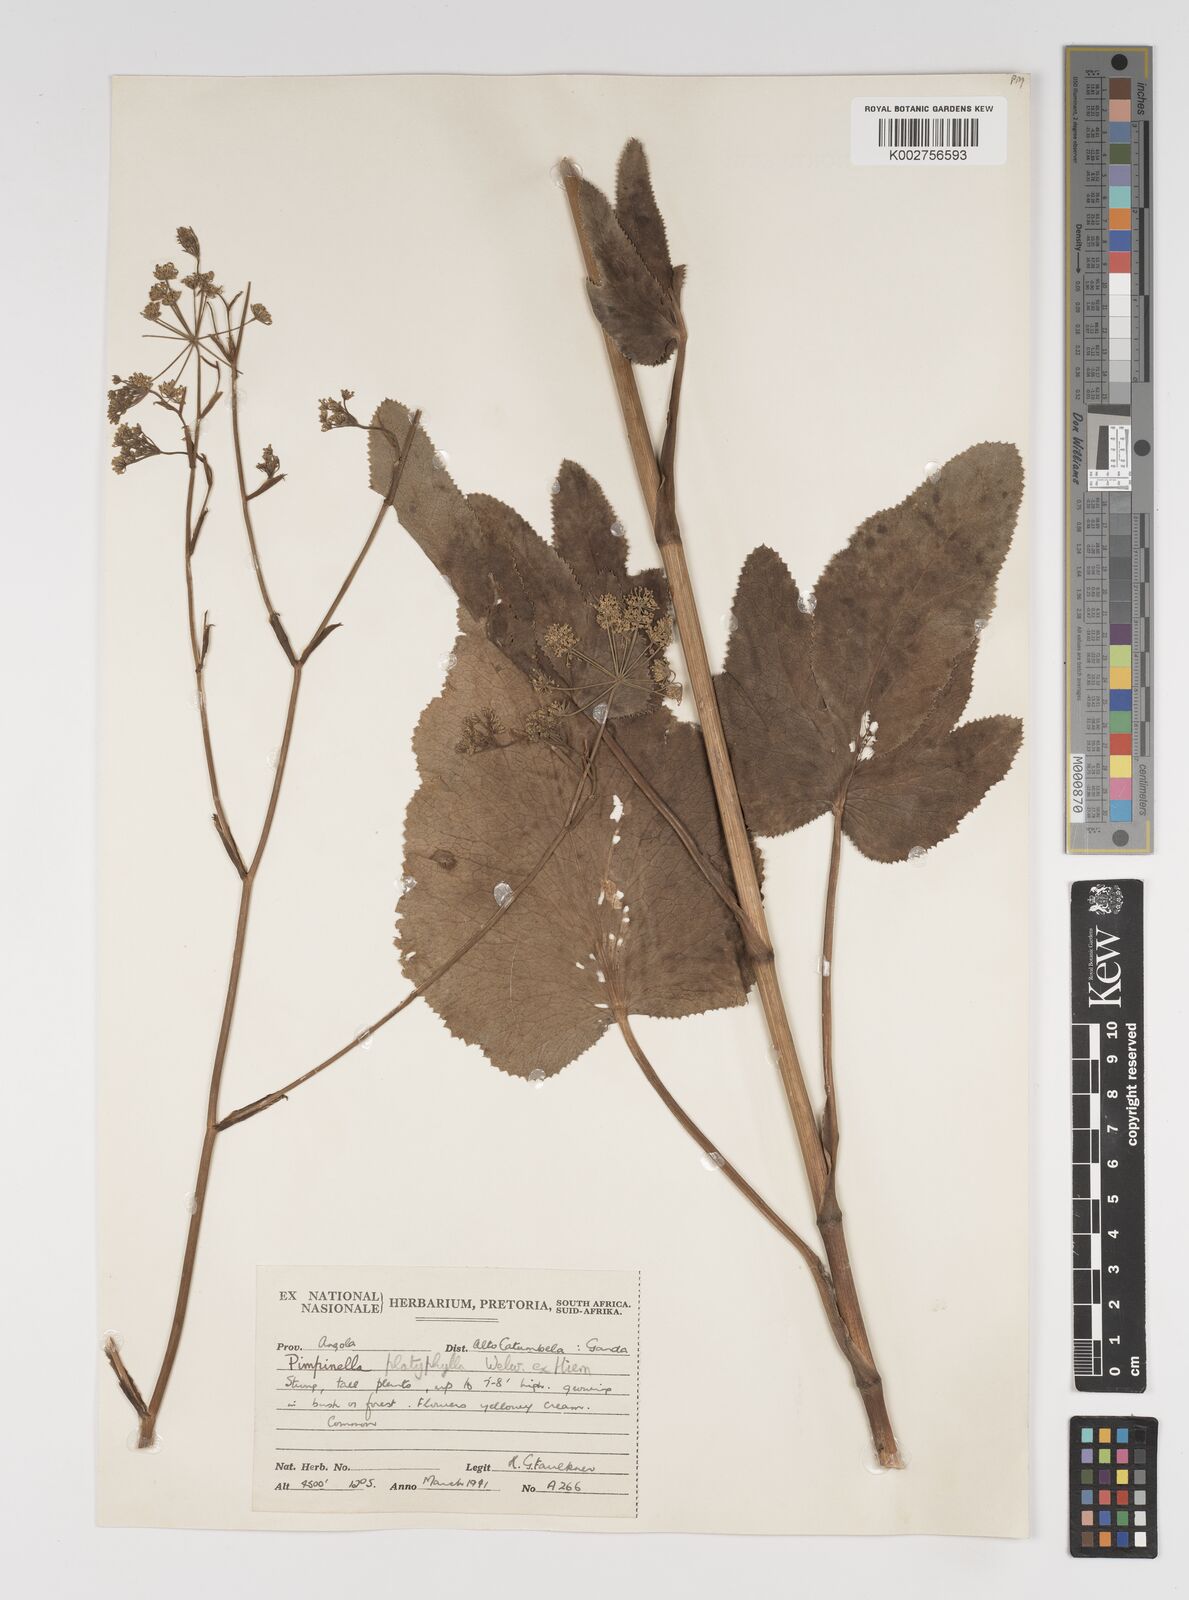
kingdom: Plantae
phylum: Tracheophyta
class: Magnoliopsida
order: Apiales
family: Apiaceae
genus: Pimpinella
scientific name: Pimpinella huillensis
